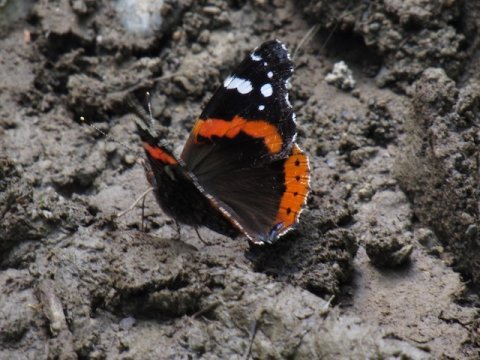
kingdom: Animalia
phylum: Arthropoda
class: Insecta
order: Lepidoptera
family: Nymphalidae
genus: Vanessa
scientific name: Vanessa atalanta
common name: Red Admiral
